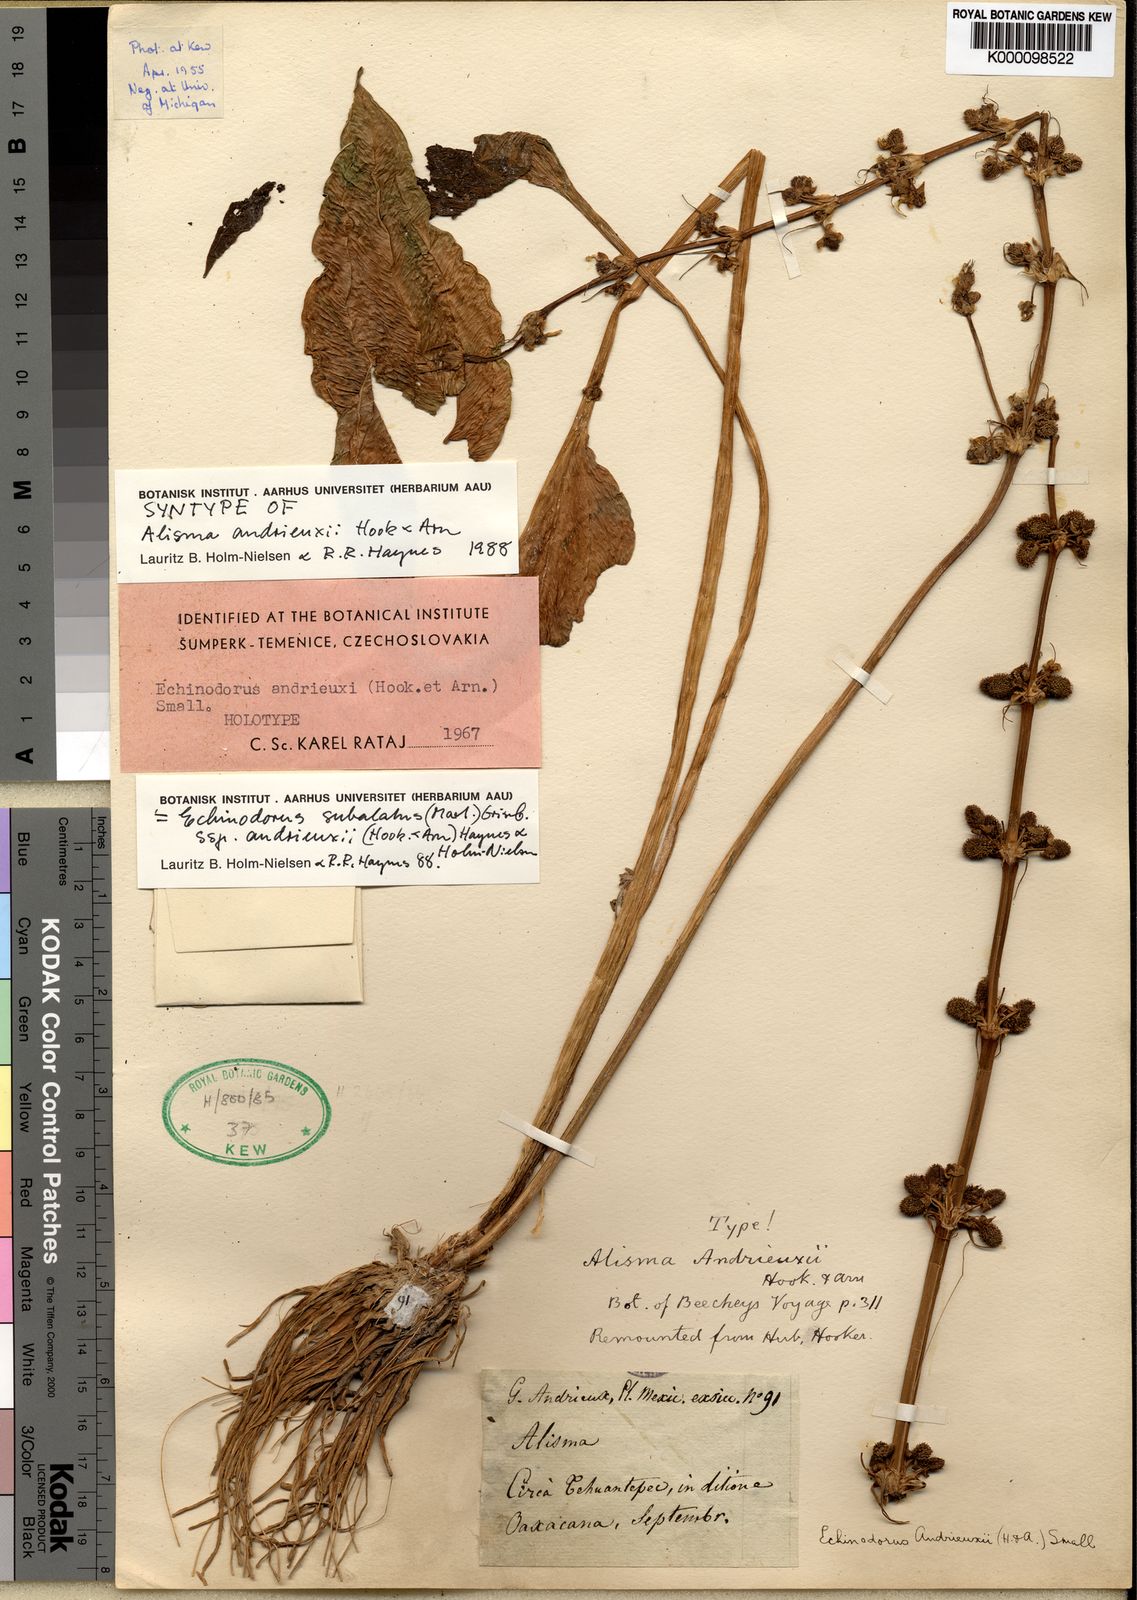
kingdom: Plantae
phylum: Tracheophyta
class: Liliopsida
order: Alismatales
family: Alismataceae
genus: Aquarius
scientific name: Aquarius subulatus
